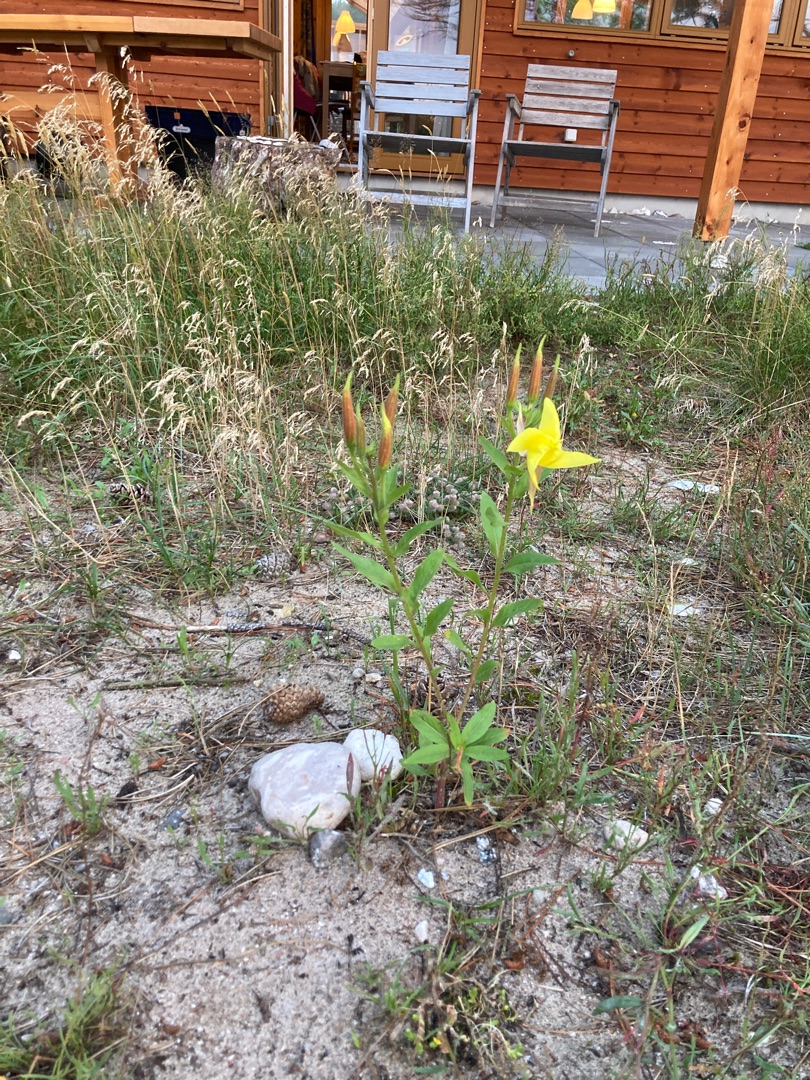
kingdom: Plantae
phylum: Tracheophyta
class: Magnoliopsida
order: Myrtales
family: Onagraceae
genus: Oenothera
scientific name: Oenothera glazioviana
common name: Kæmpe-natlys
